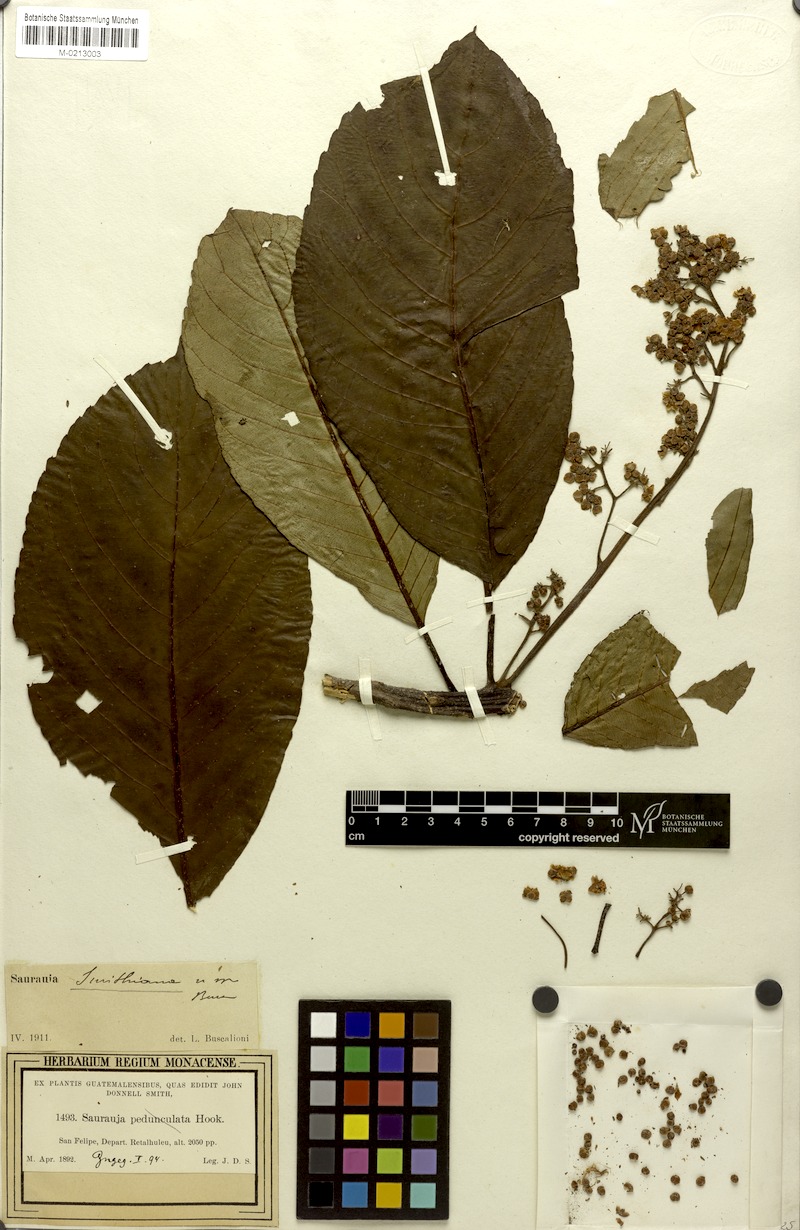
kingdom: Plantae
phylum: Tracheophyta
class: Magnoliopsida
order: Ericales
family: Actinidiaceae
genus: Saurauia
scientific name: Saurauia laevigata
